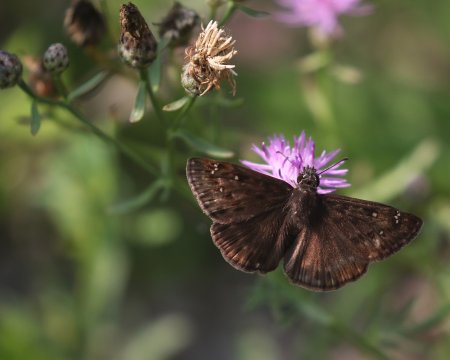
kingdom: Animalia
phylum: Arthropoda
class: Insecta
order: Lepidoptera
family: Hesperiidae
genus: Gesta
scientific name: Gesta
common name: Horace's Duskywing
